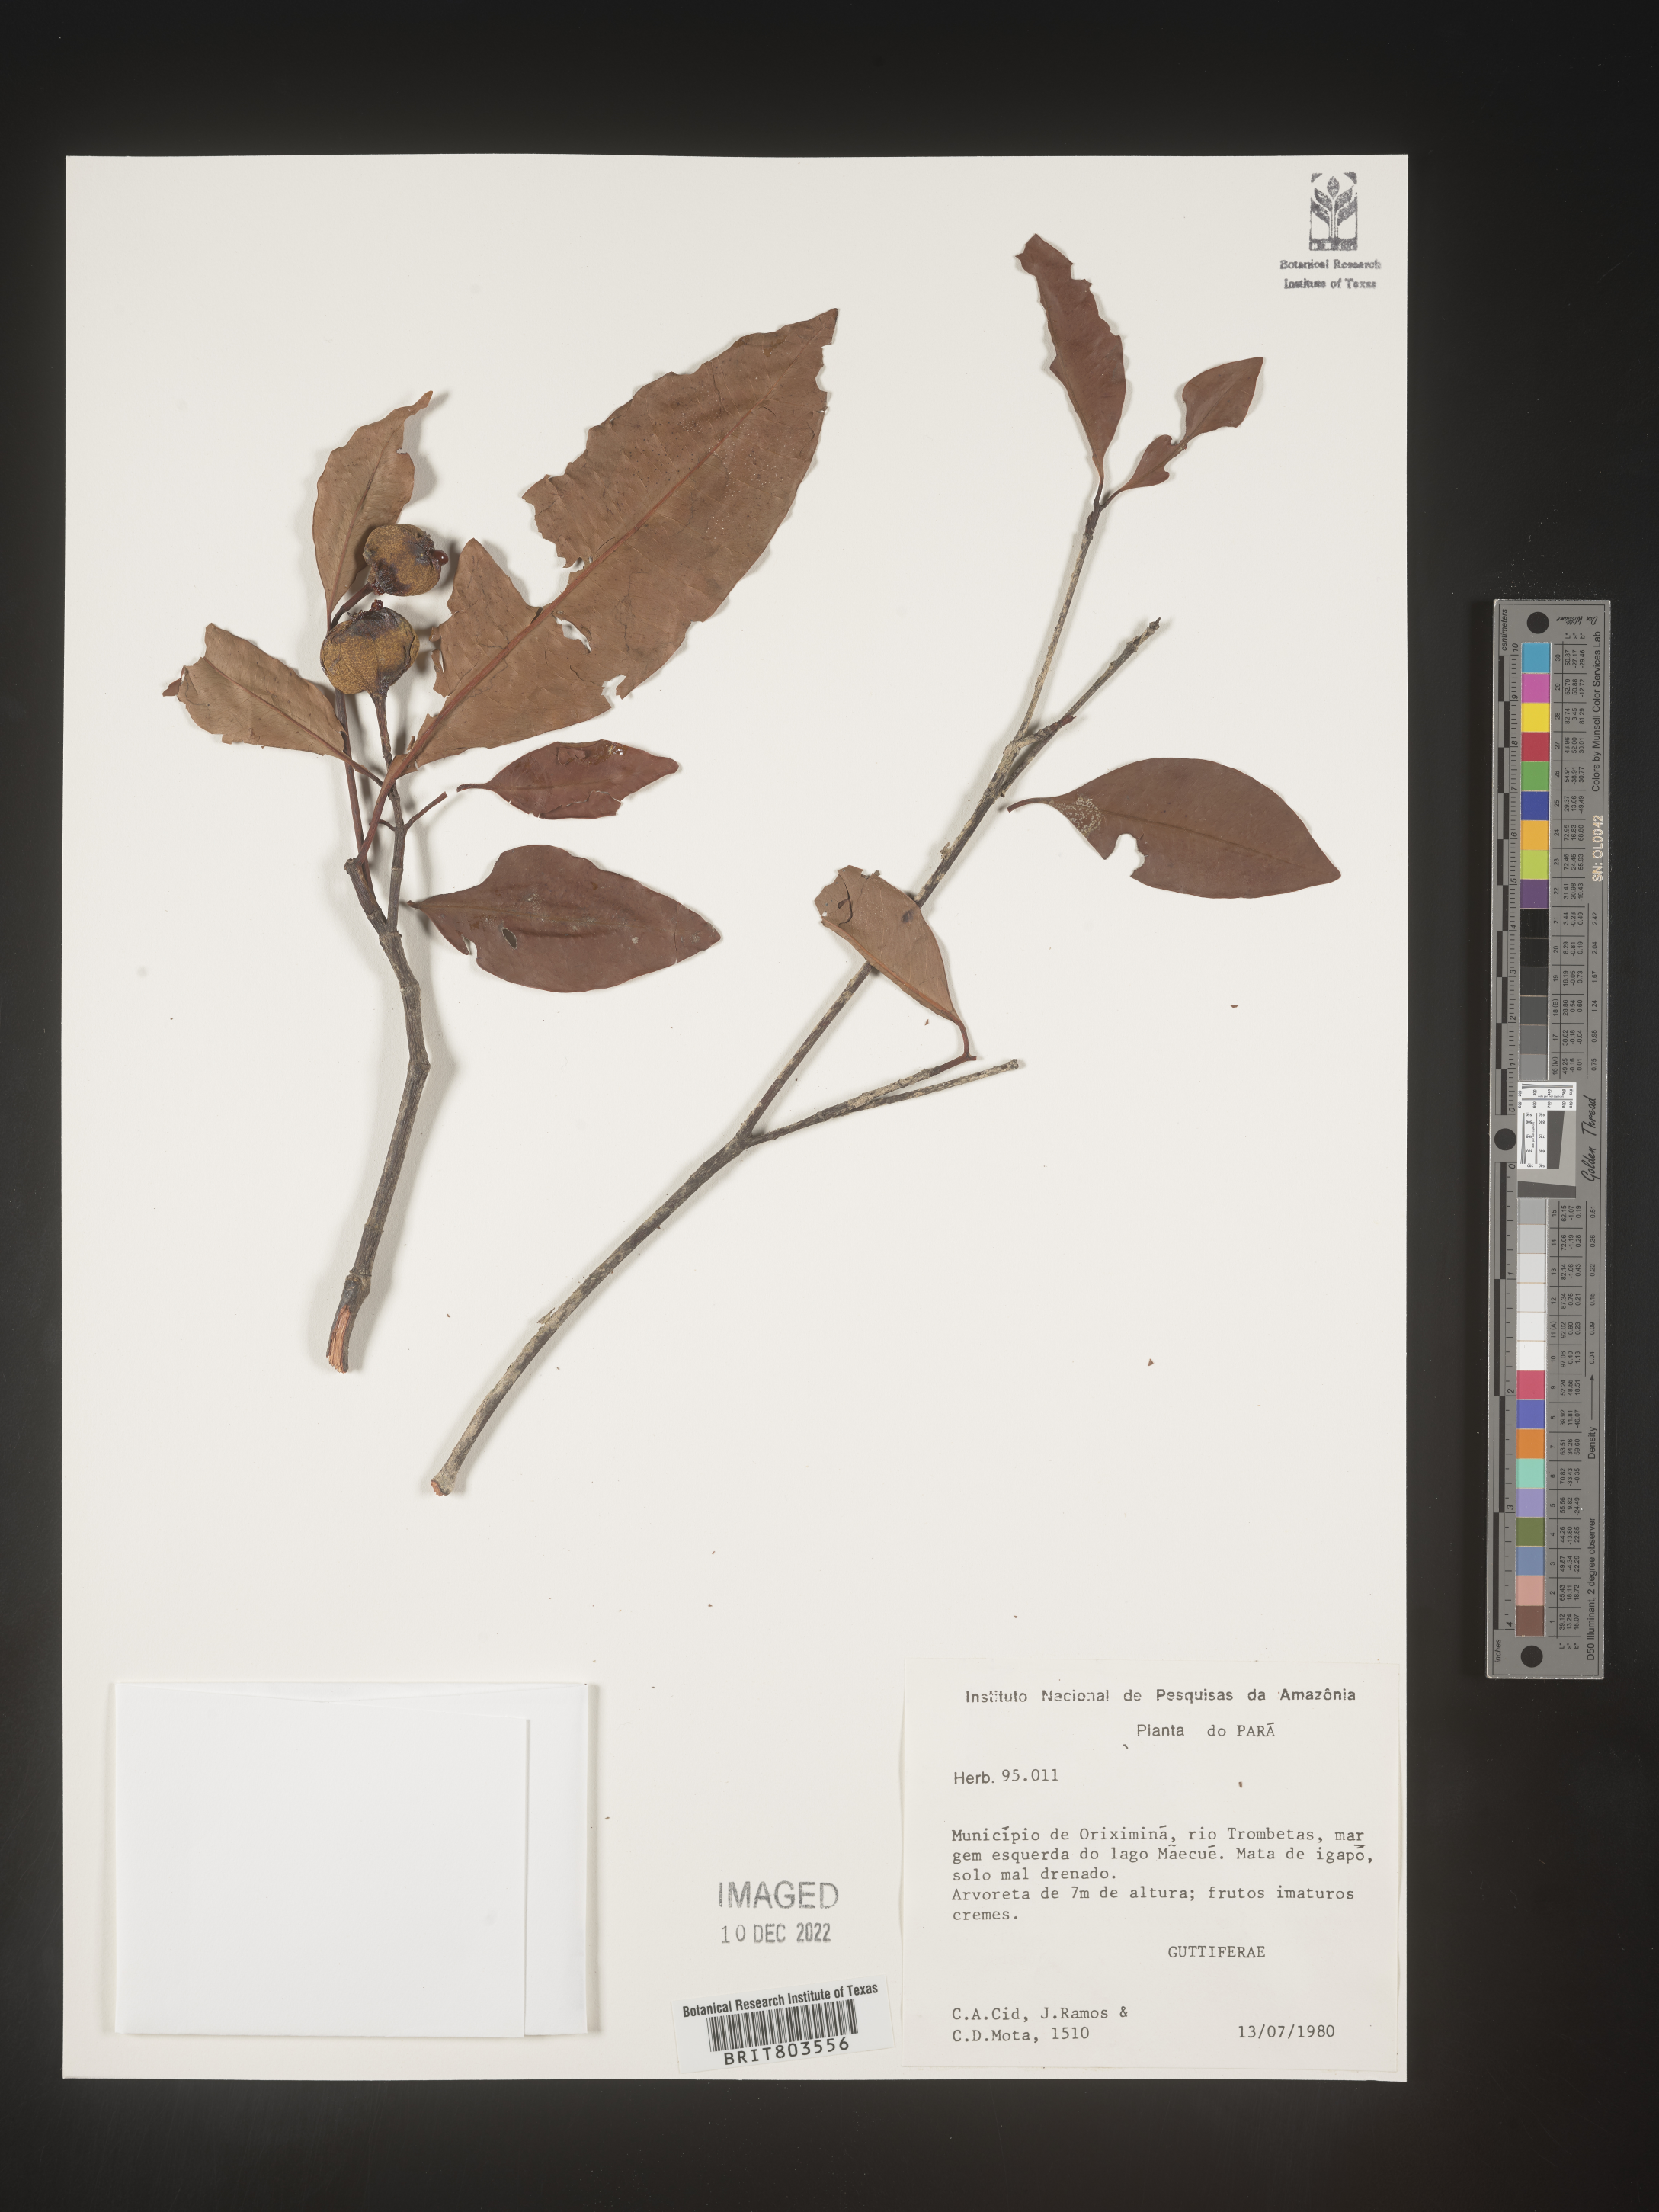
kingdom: Plantae
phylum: Tracheophyta
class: Magnoliopsida
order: Malpighiales
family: Clusiaceae
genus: Tovomita
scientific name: Tovomita
